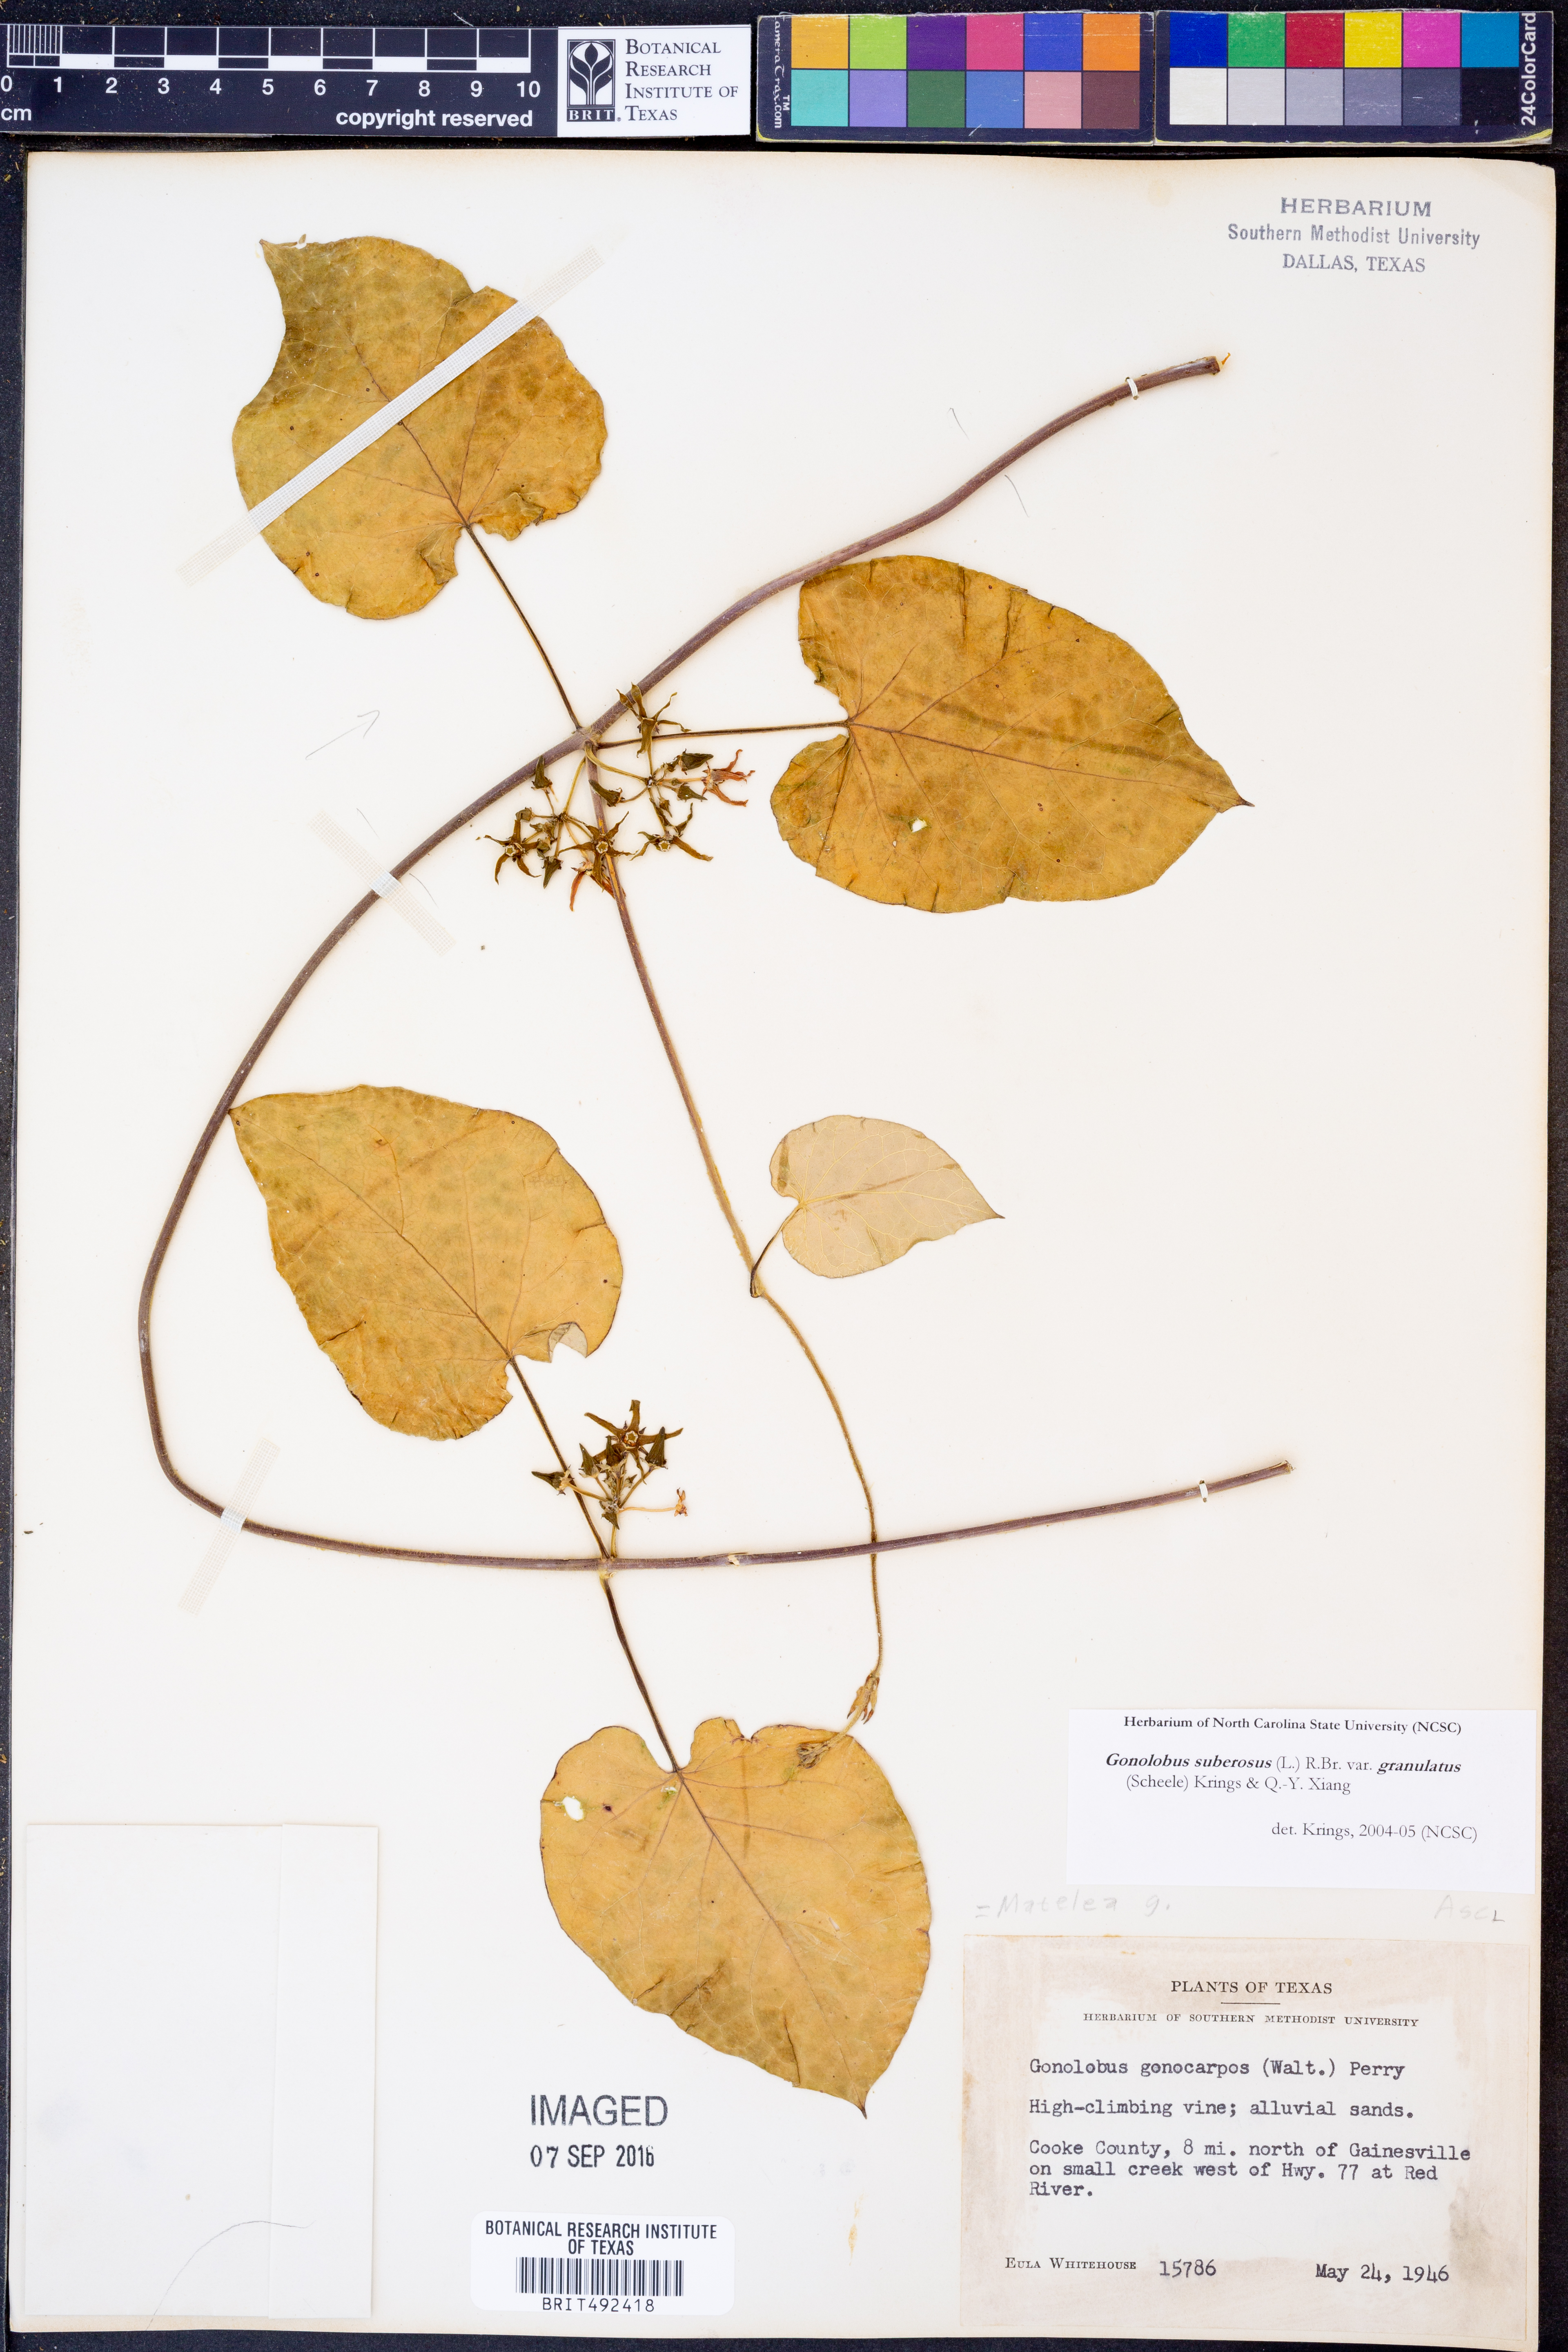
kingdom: Plantae
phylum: Tracheophyta
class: Magnoliopsida
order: Gentianales
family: Apocynaceae
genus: Gonolobus
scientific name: Gonolobus suberosus
